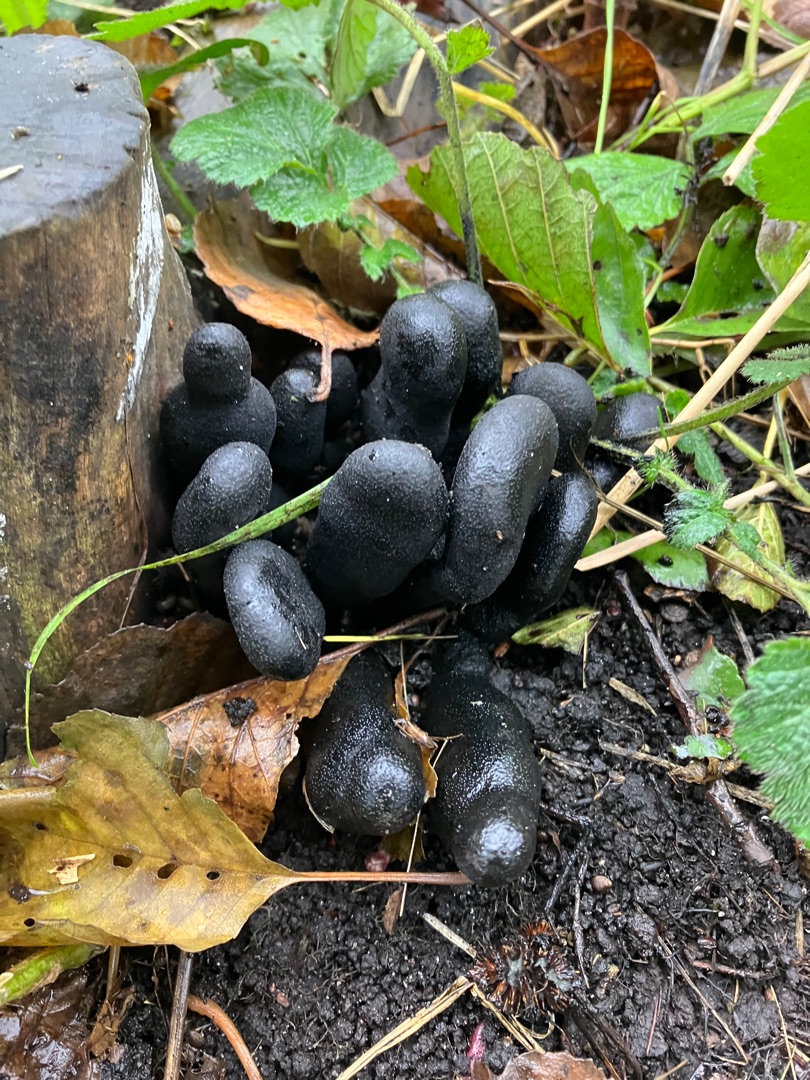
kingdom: Fungi
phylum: Ascomycota
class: Sordariomycetes
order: Xylariales
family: Xylariaceae
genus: Xylaria
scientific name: Xylaria polymorpha
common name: Kølle-stødsvamp
